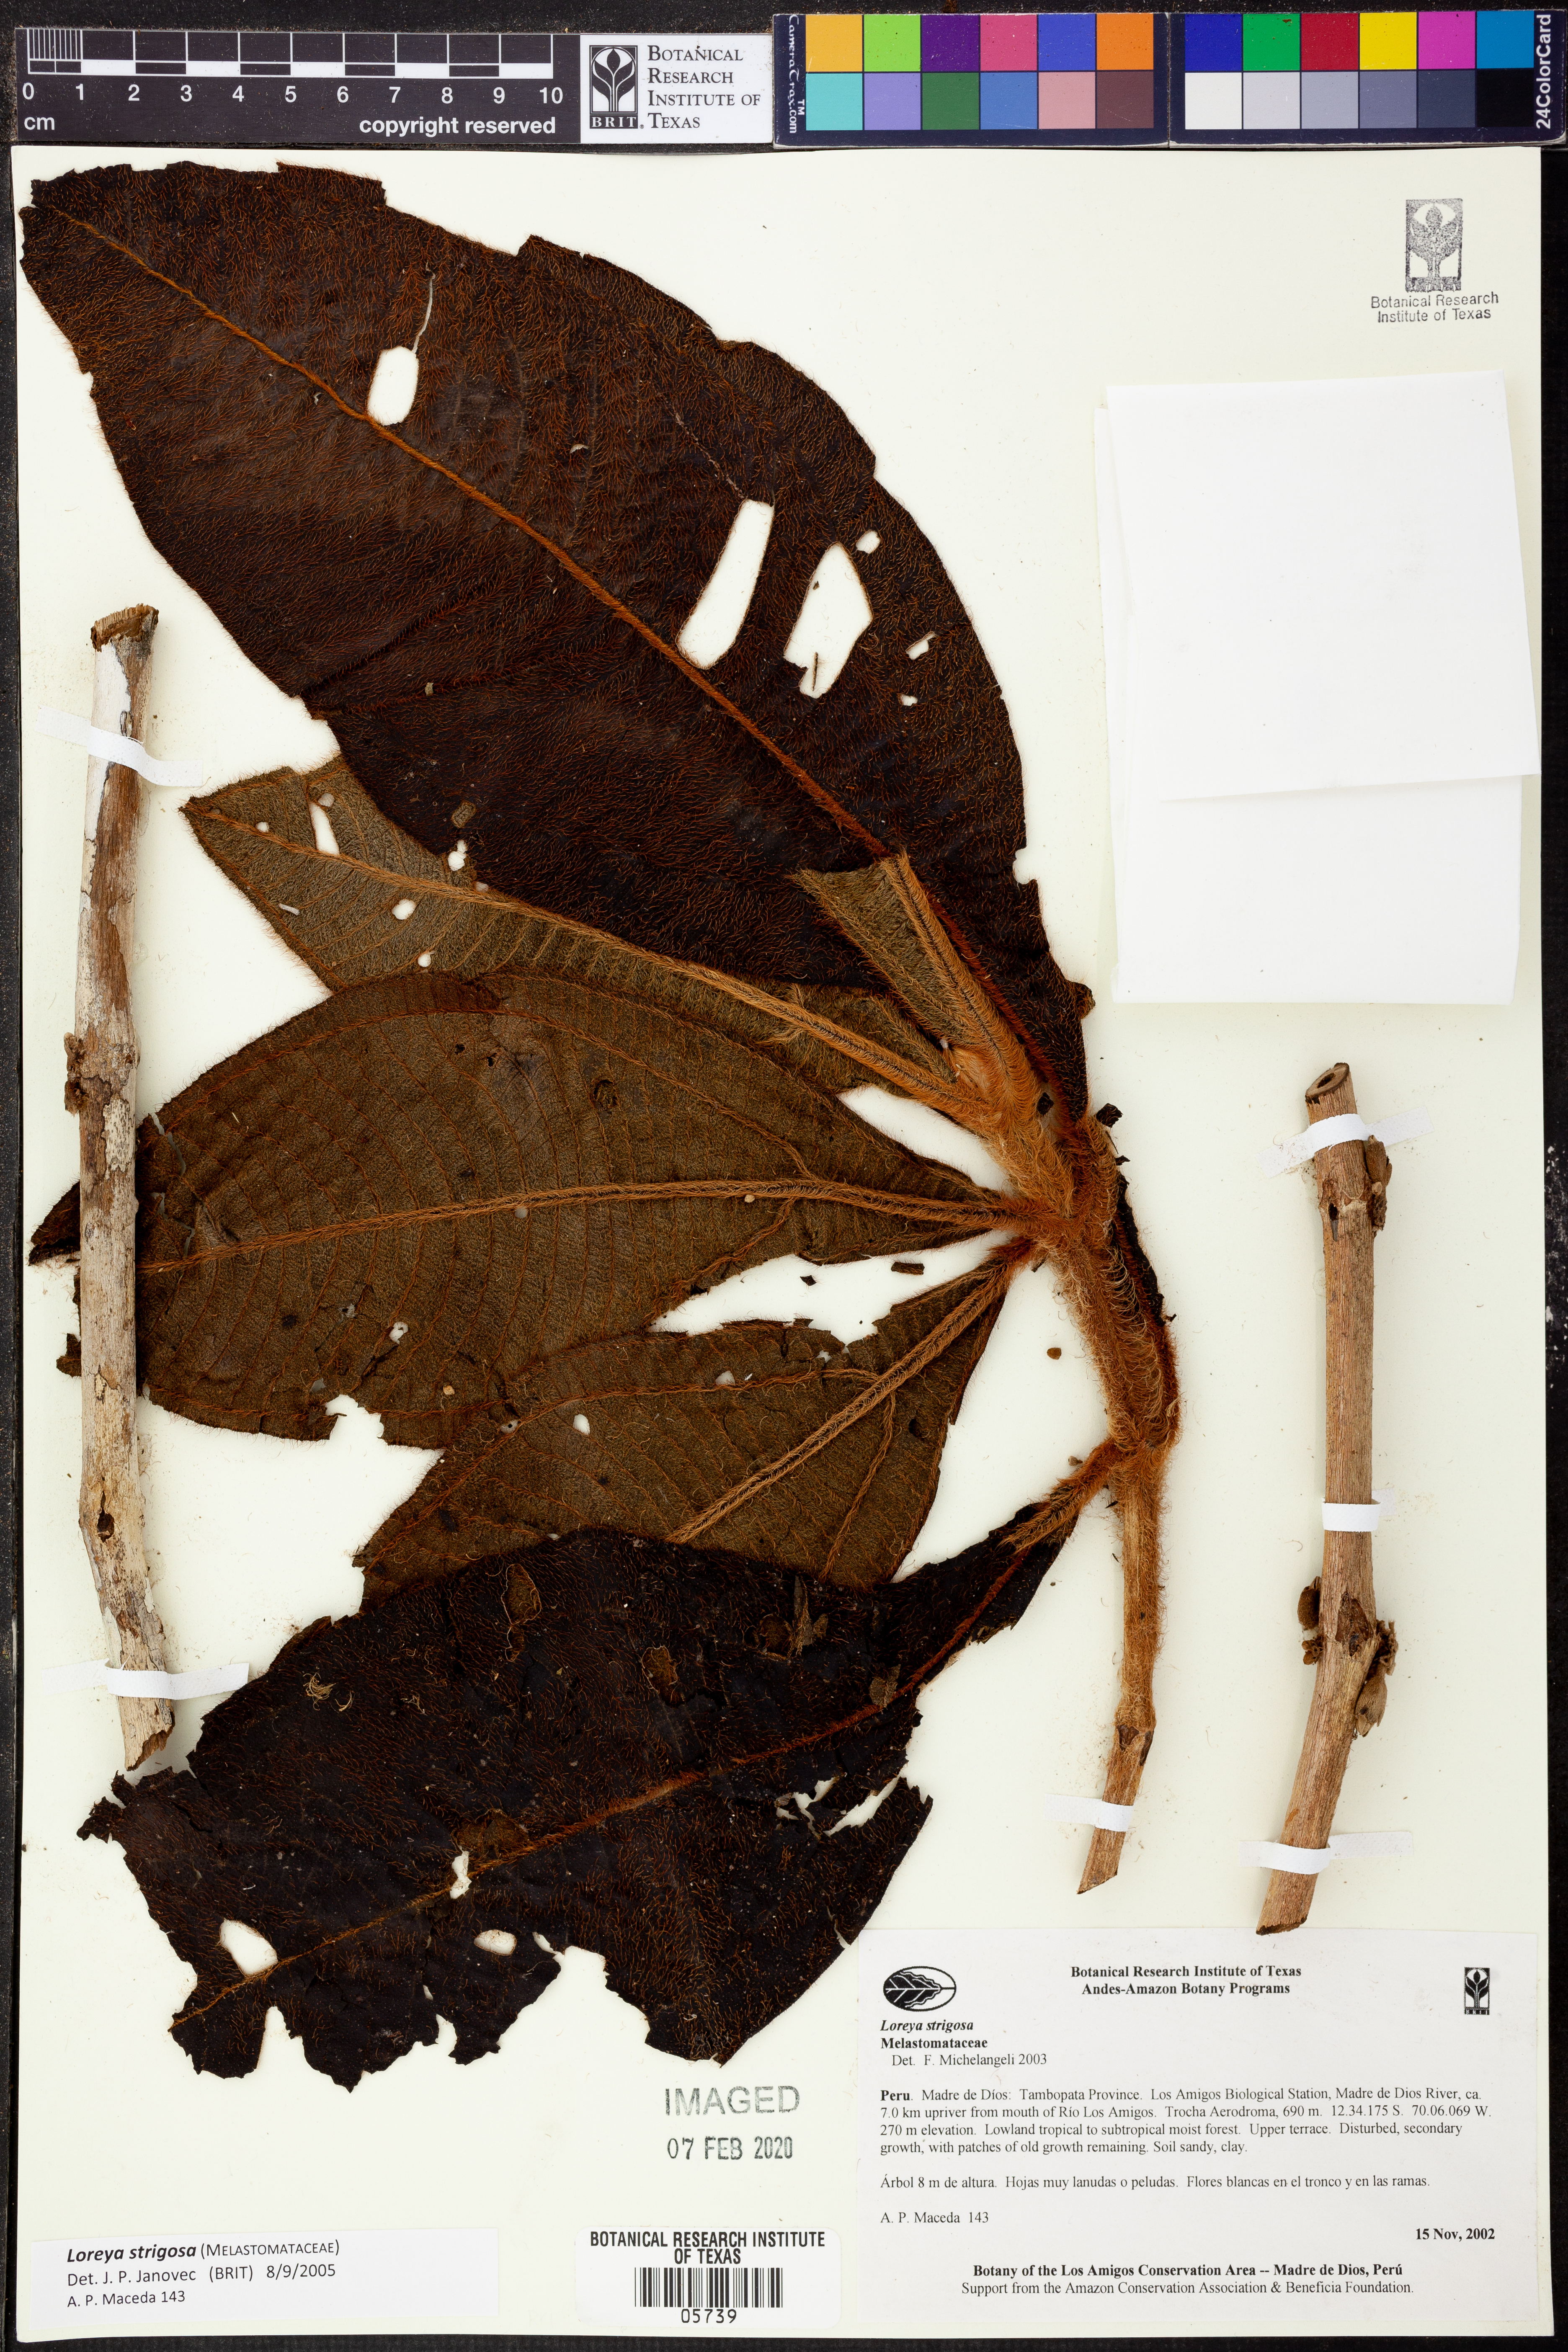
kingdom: Plantae
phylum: Tracheophyta
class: Magnoliopsida
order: Myrtales
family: Melastomataceae
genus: Bellucia
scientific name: Bellucia strigosa
